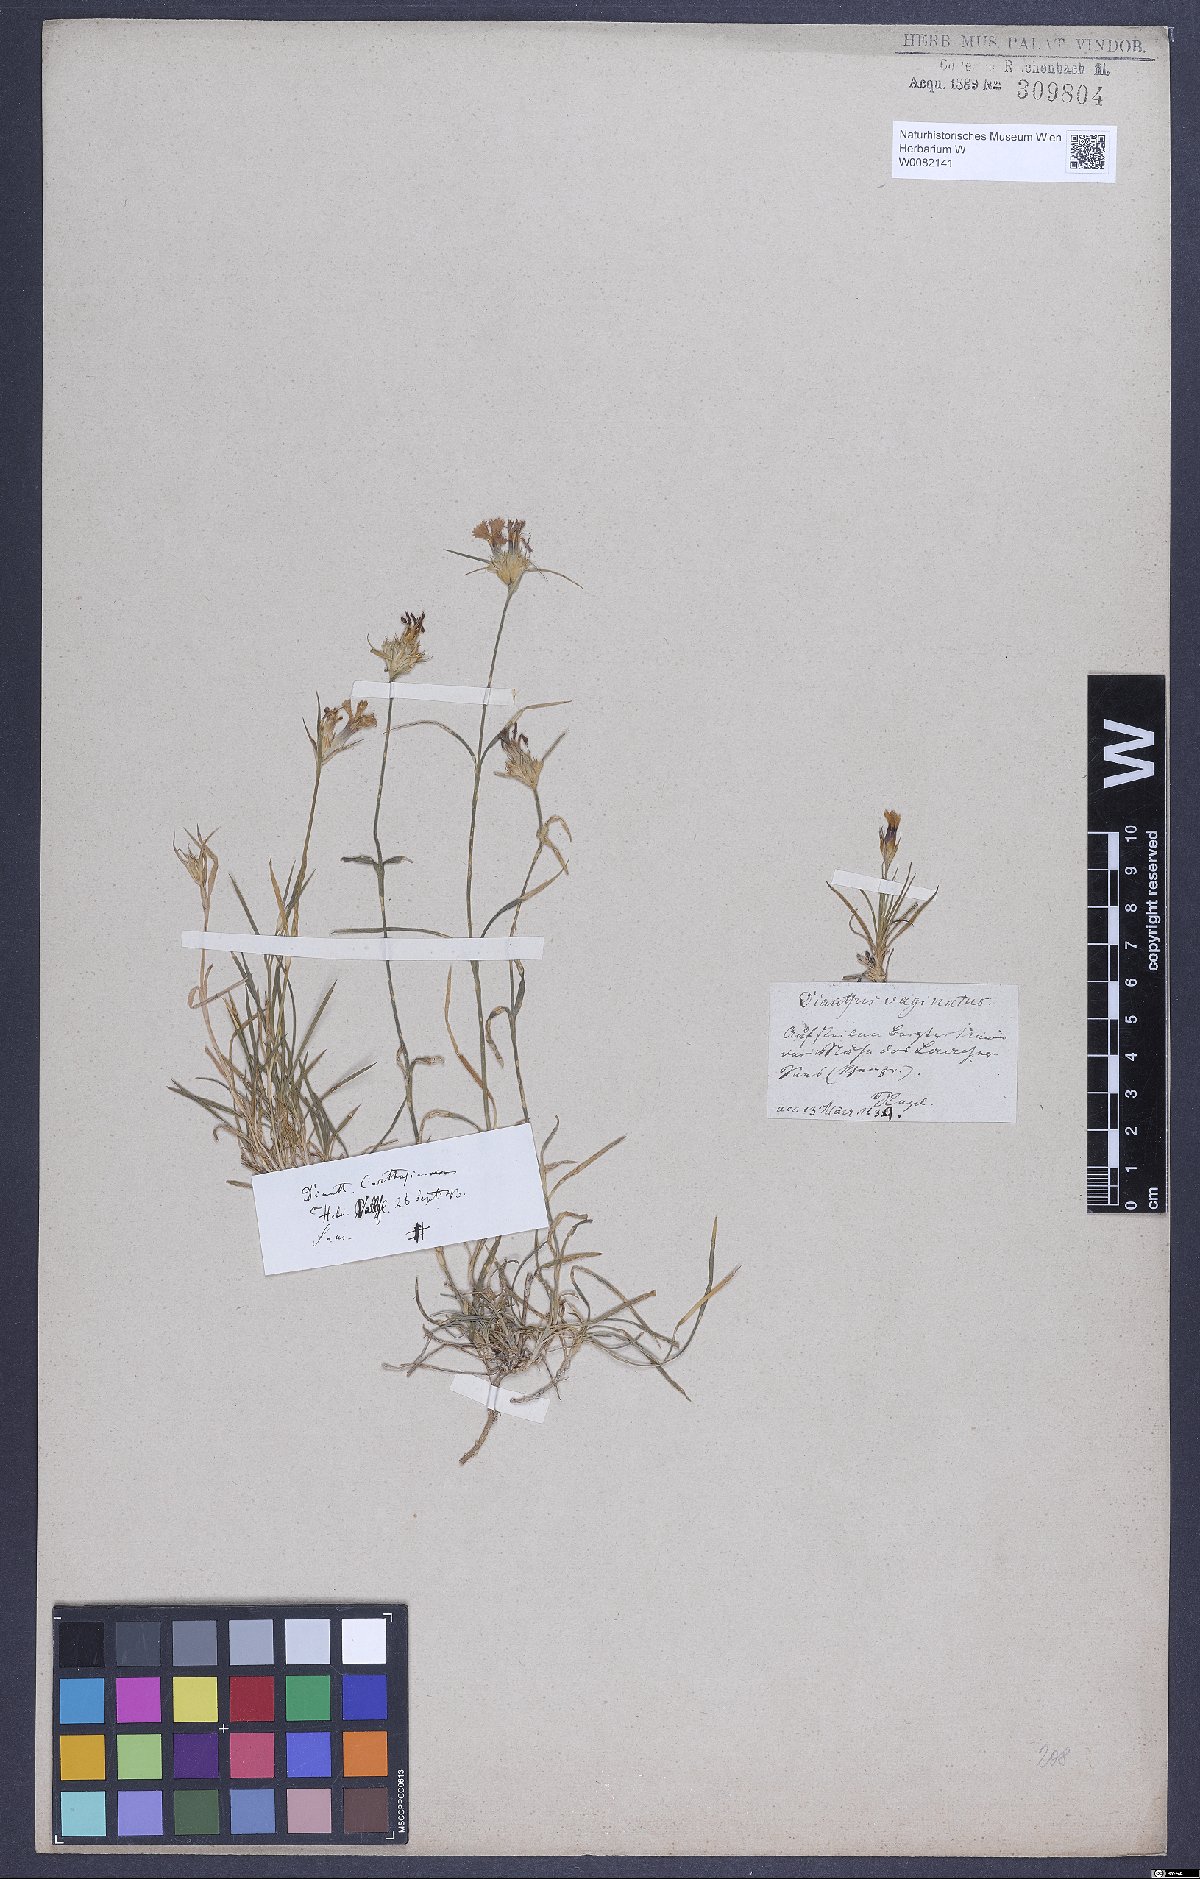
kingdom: Plantae
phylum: Tracheophyta
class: Magnoliopsida
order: Caryophyllales
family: Caryophyllaceae
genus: Dianthus
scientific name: Dianthus sylvestris
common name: Wood pink
